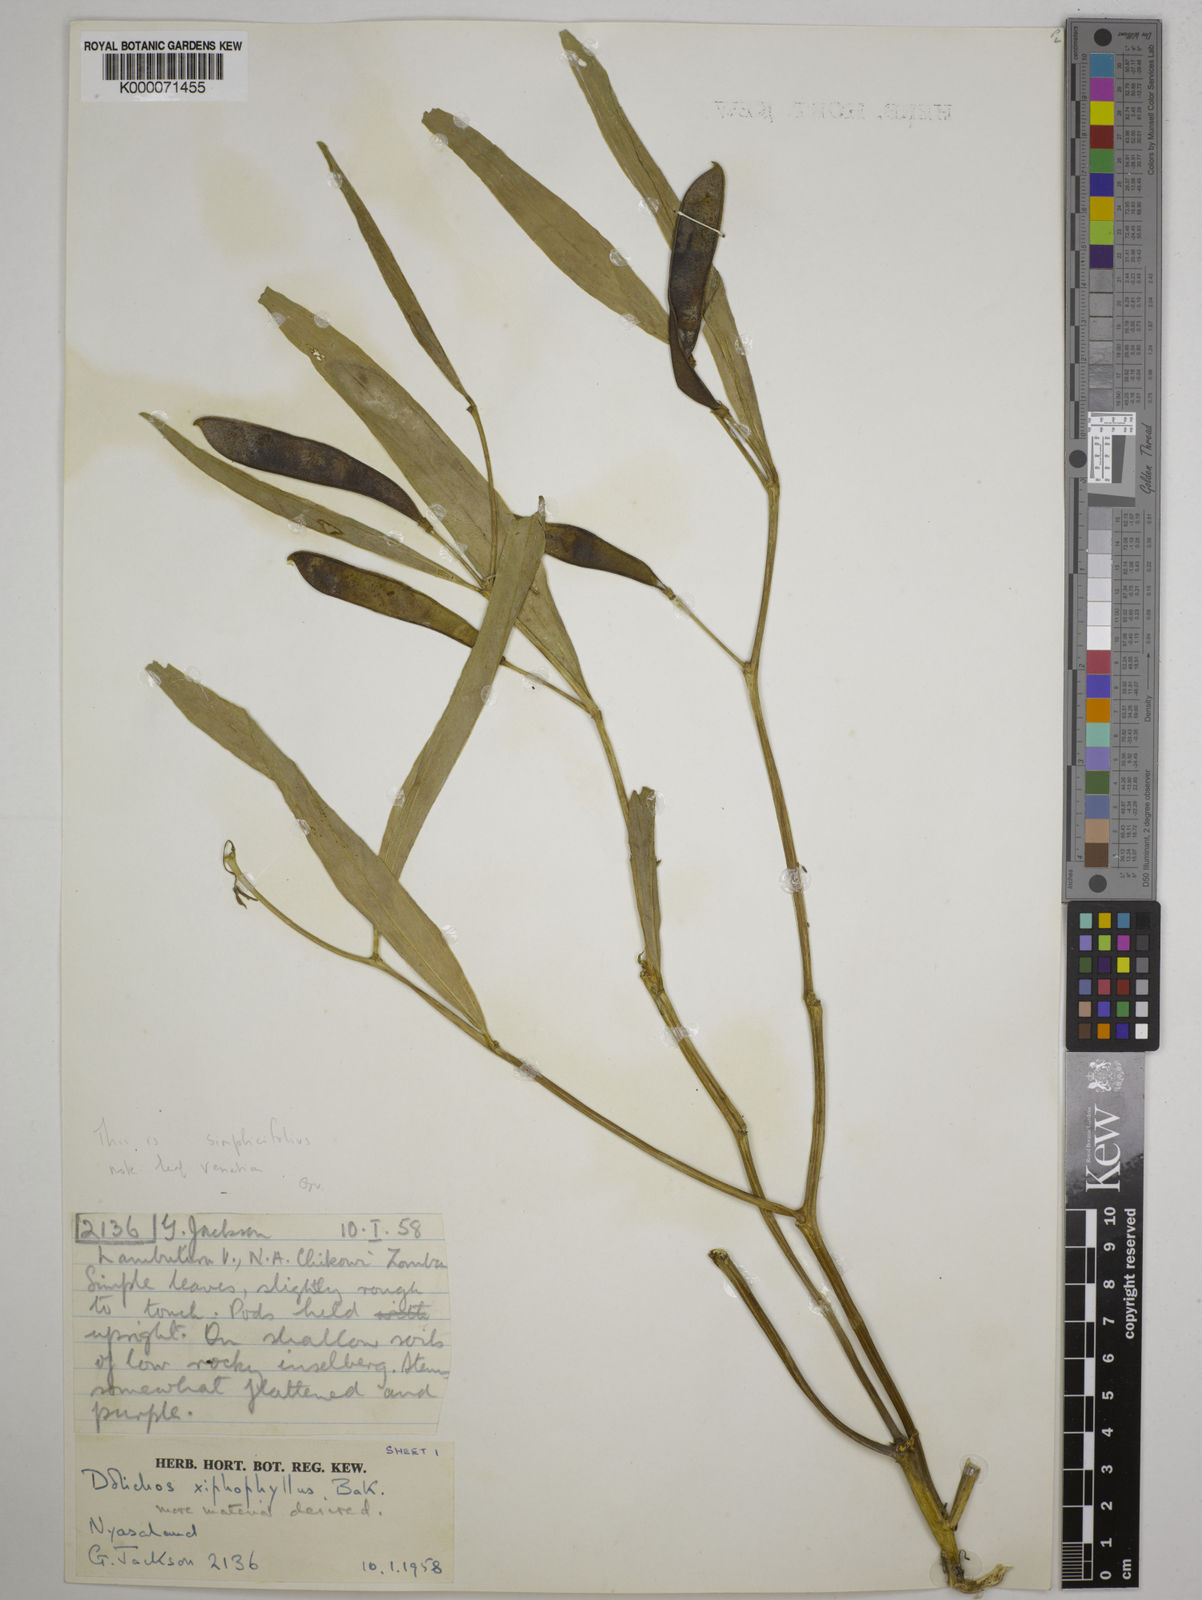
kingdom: Plantae
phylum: Tracheophyta
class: Magnoliopsida
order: Fabales
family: Fabaceae
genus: Dolichos
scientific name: Dolichos simplicifolius
